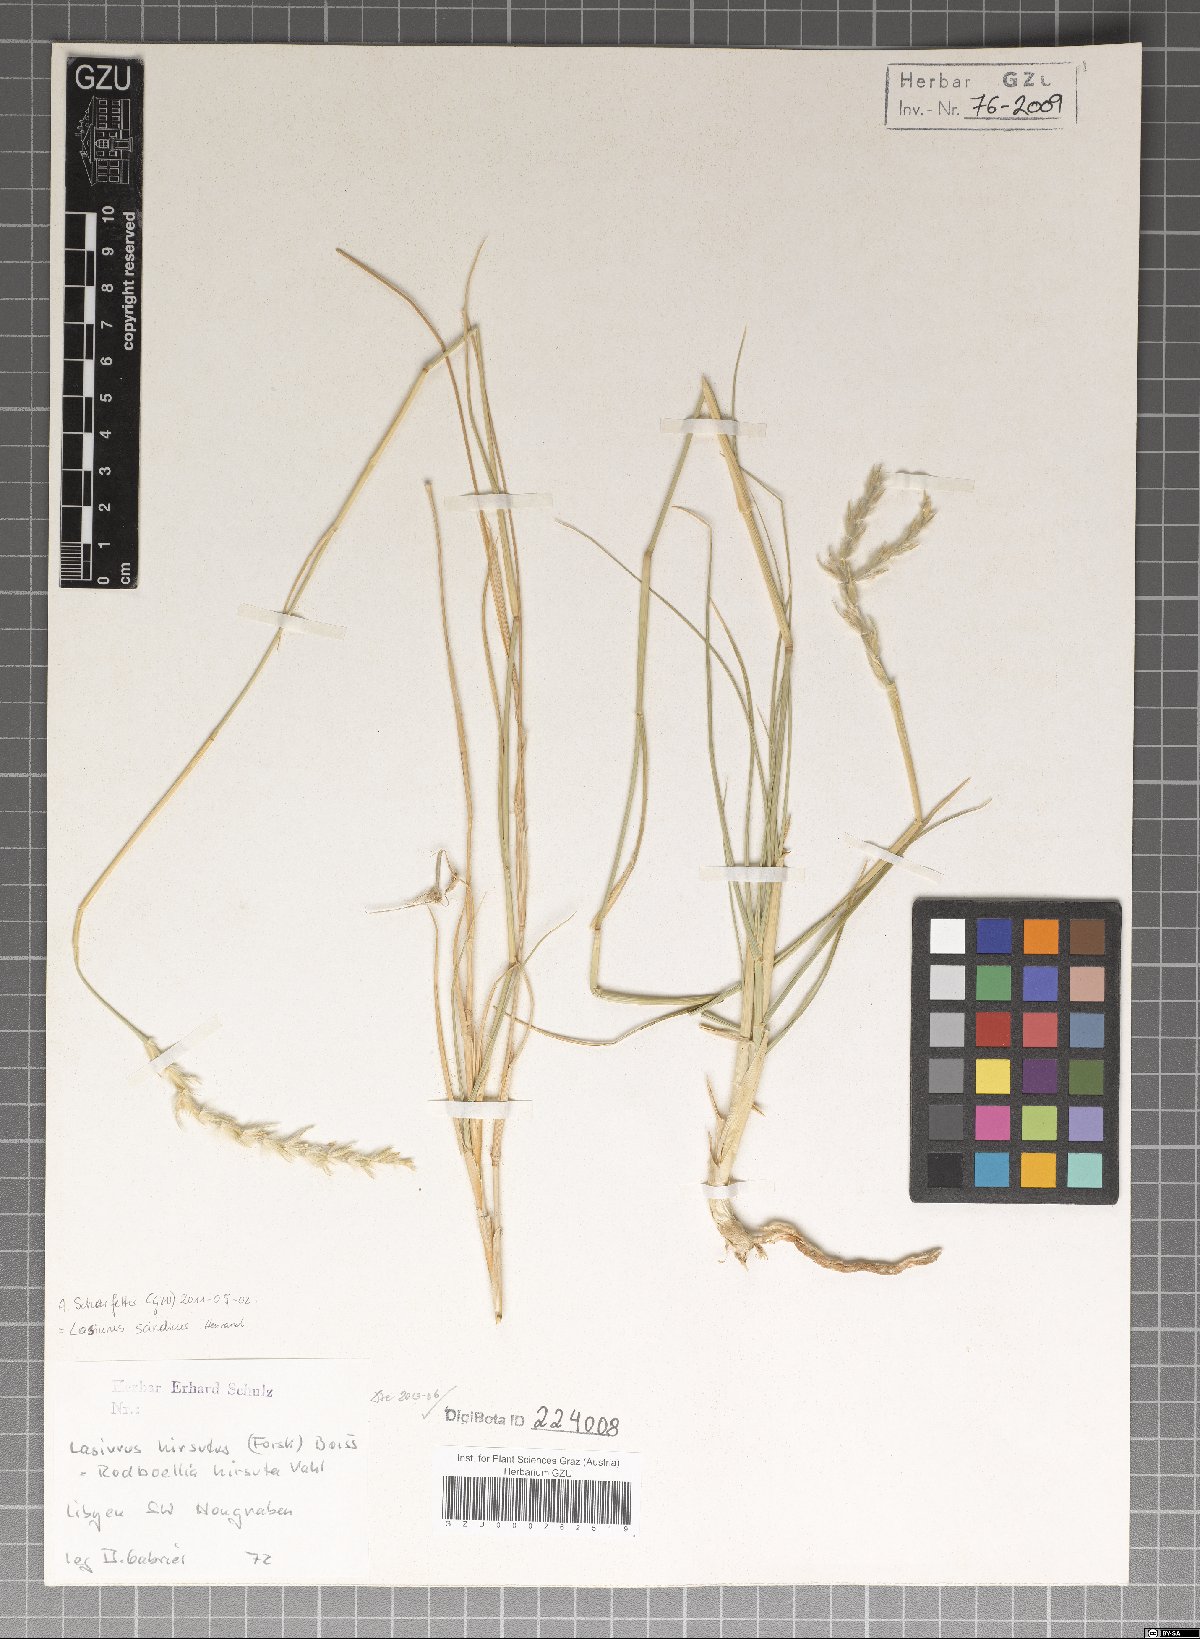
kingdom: Plantae
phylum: Tracheophyta
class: Liliopsida
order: Poales
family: Poaceae
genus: Lasiurus
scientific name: Lasiurus scindicus
